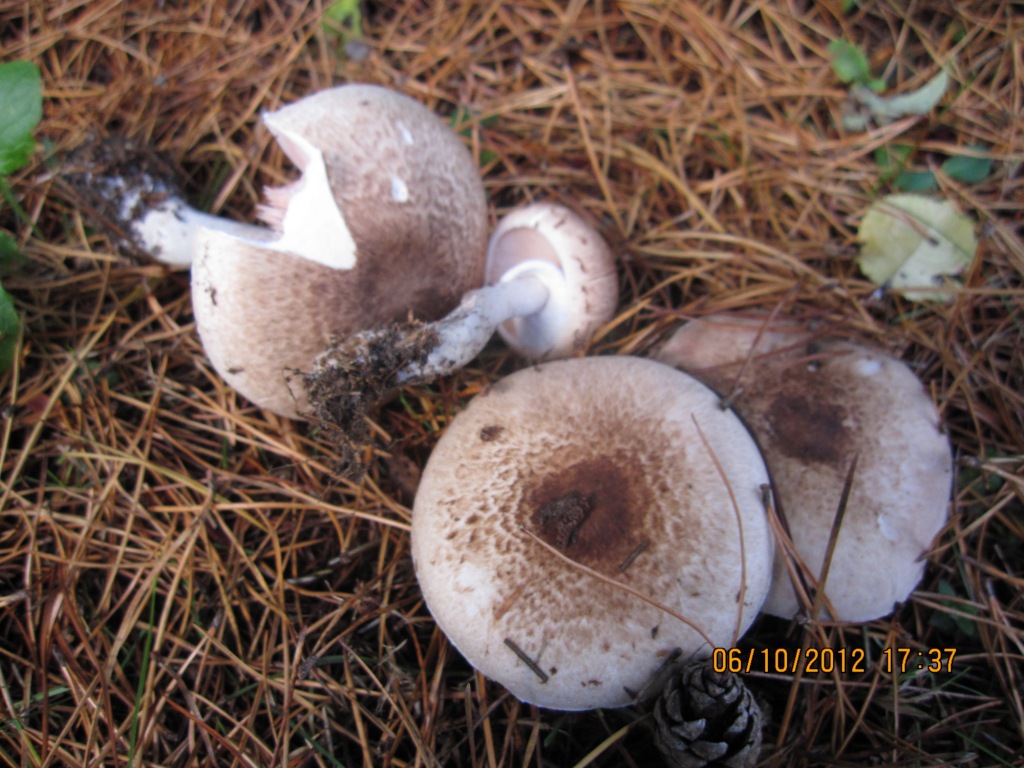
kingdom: Fungi
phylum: Basidiomycota
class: Agaricomycetes
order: Agaricales
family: Agaricaceae
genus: Agaricus
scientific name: Agaricus impudicus
